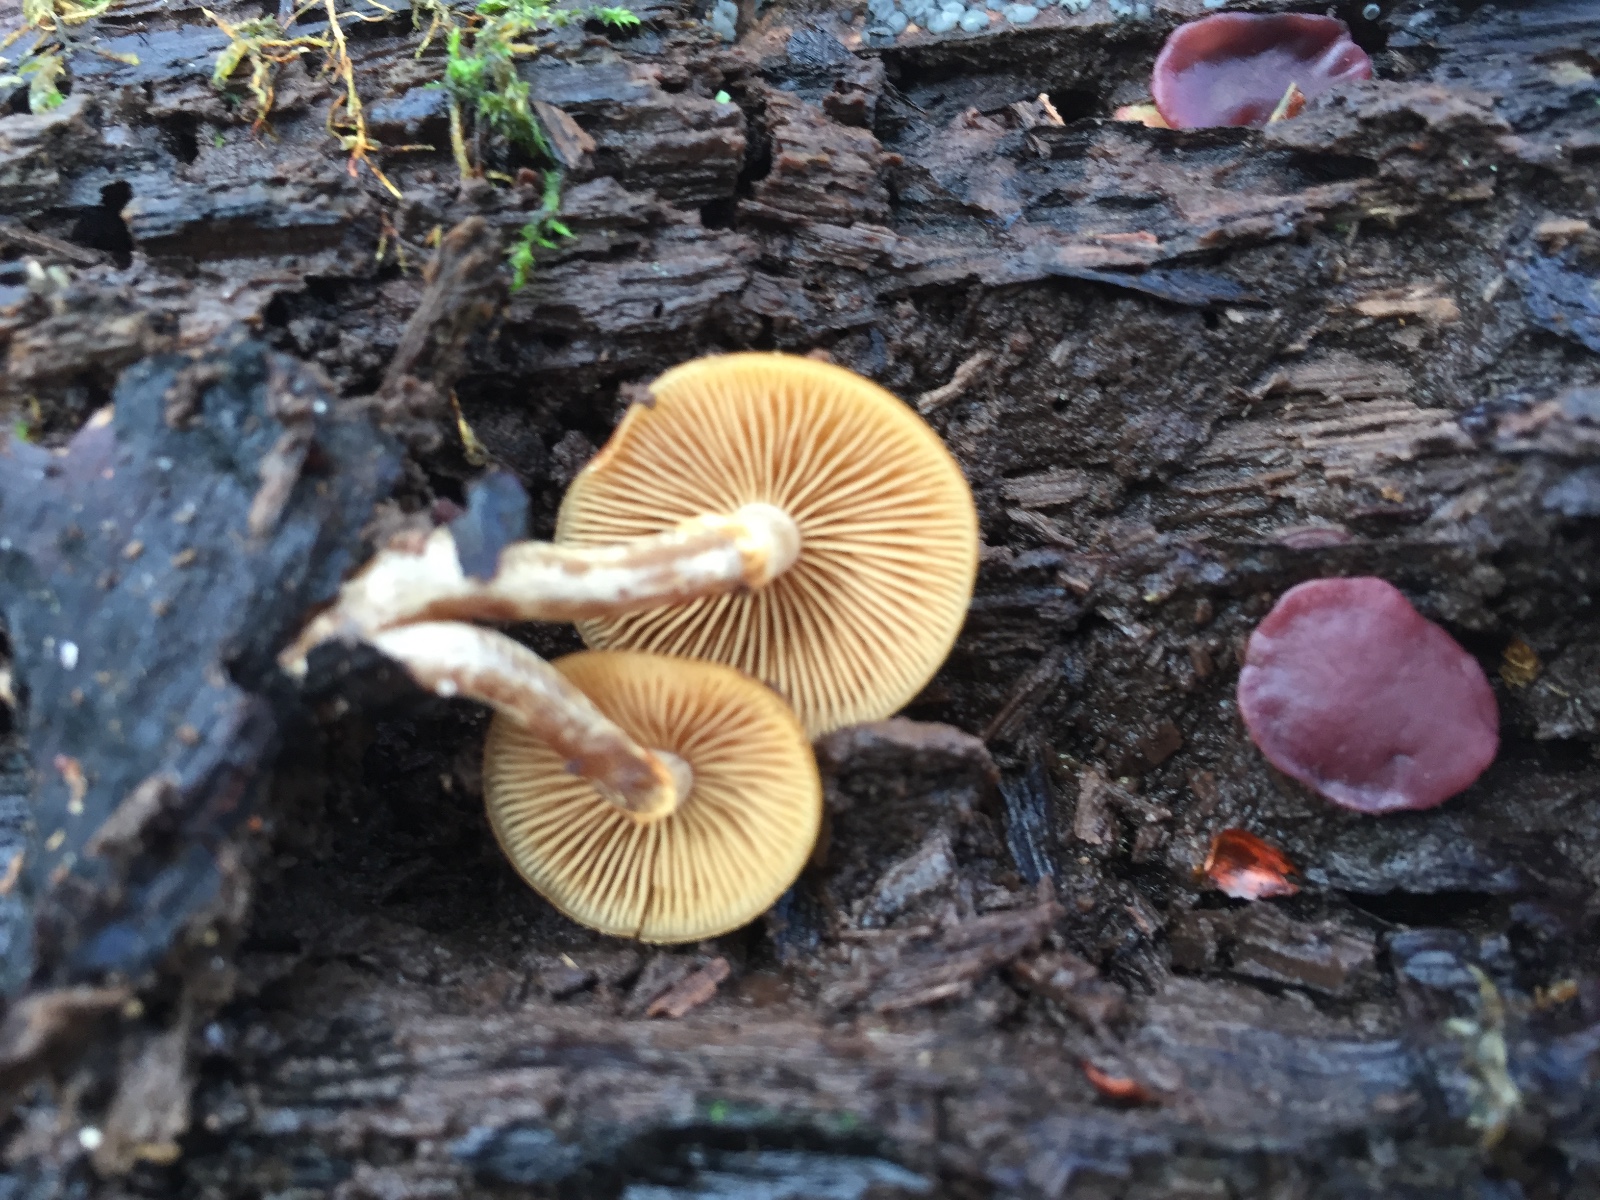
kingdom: Fungi
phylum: Basidiomycota
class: Agaricomycetes
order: Agaricales
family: Hymenogastraceae
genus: Galerina
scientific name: Galerina marginata
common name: randbæltet hjelmhat
